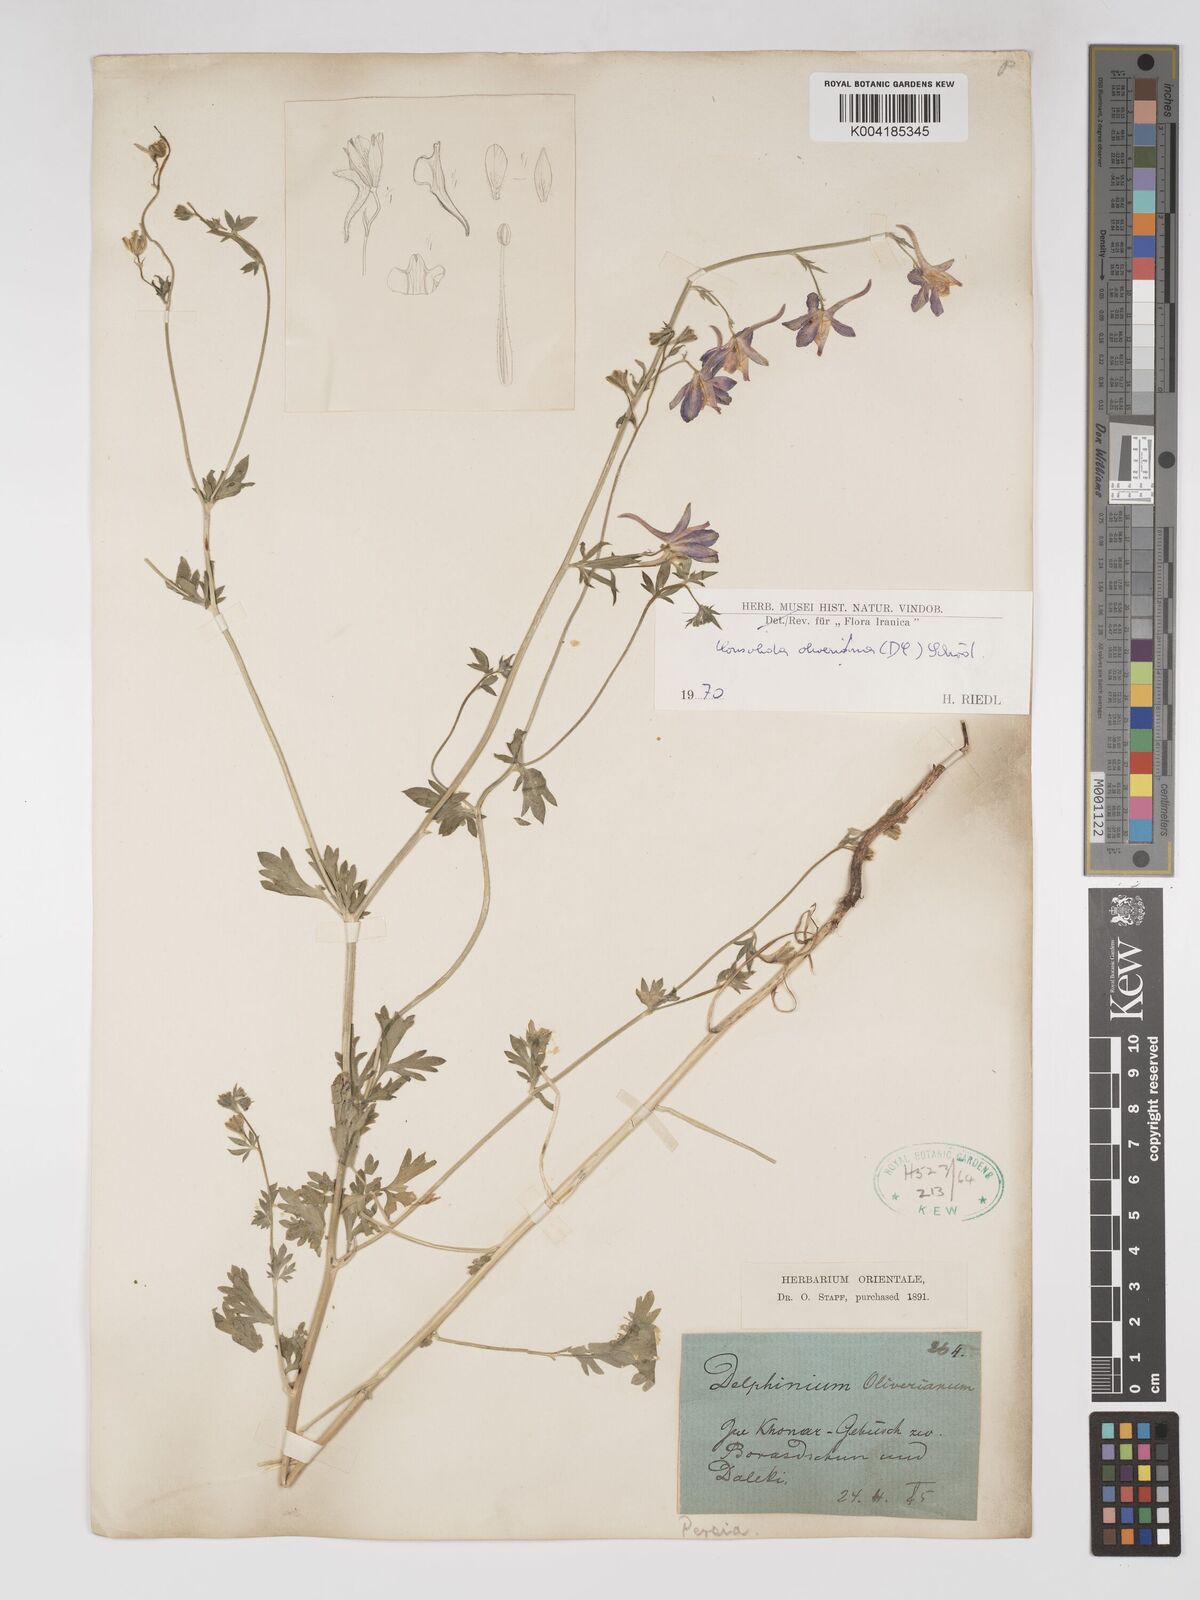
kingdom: Plantae
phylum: Tracheophyta
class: Magnoliopsida
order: Ranunculales
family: Ranunculaceae
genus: Delphinium
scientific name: Delphinium oliverianum
